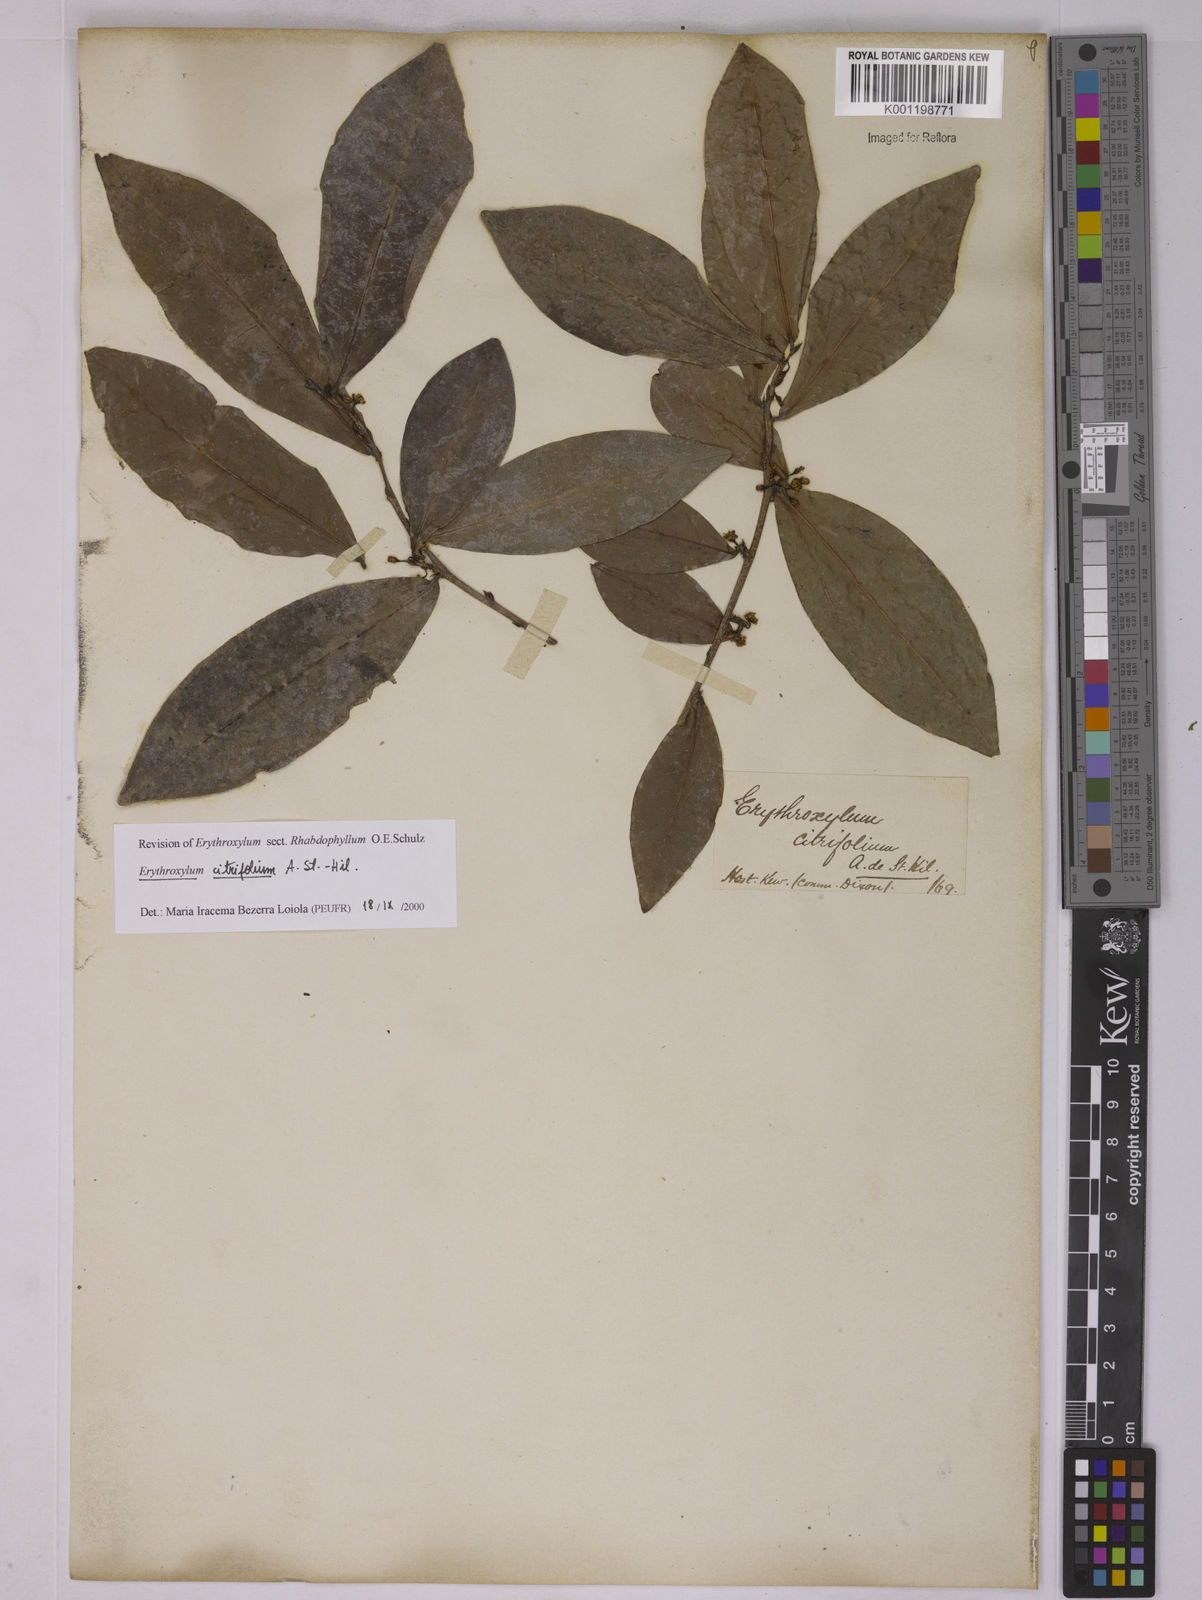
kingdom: Plantae
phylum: Tracheophyta
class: Magnoliopsida
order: Malpighiales
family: Erythroxylaceae
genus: Erythroxylum
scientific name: Erythroxylum citrifolium
